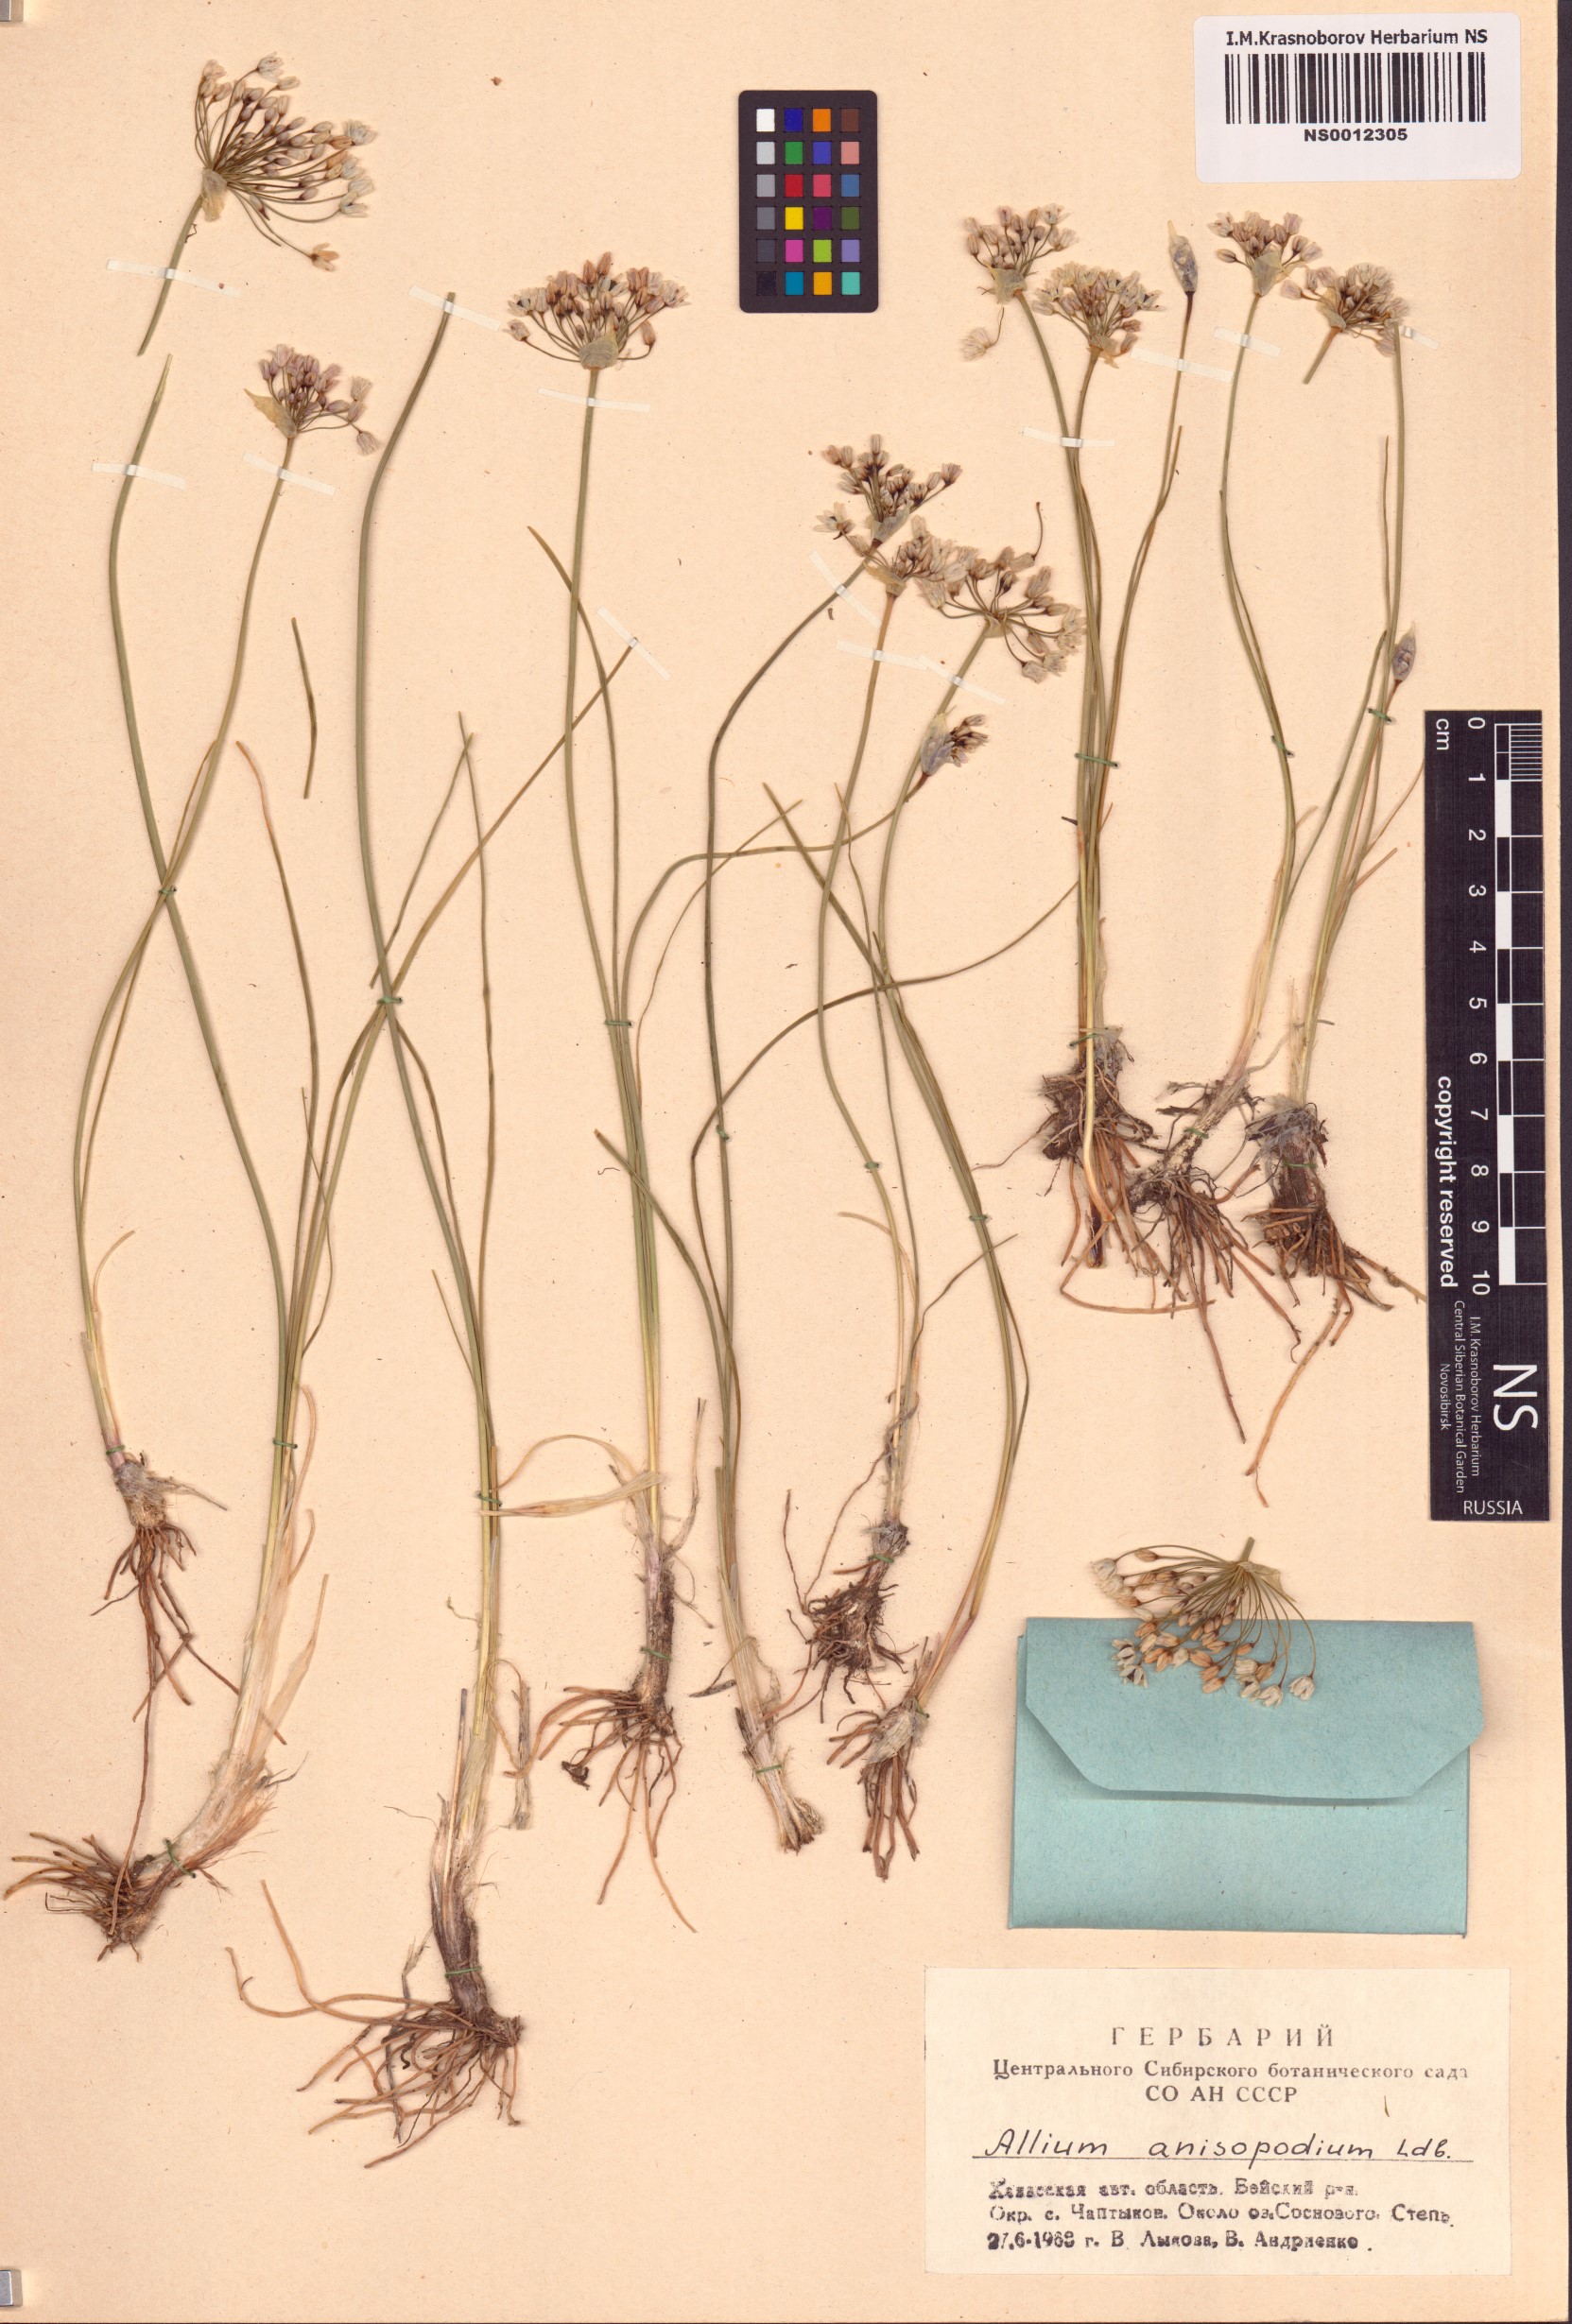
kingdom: Plantae
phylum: Tracheophyta
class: Liliopsida
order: Asparagales
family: Amaryllidaceae
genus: Allium
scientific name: Allium anisopodium
